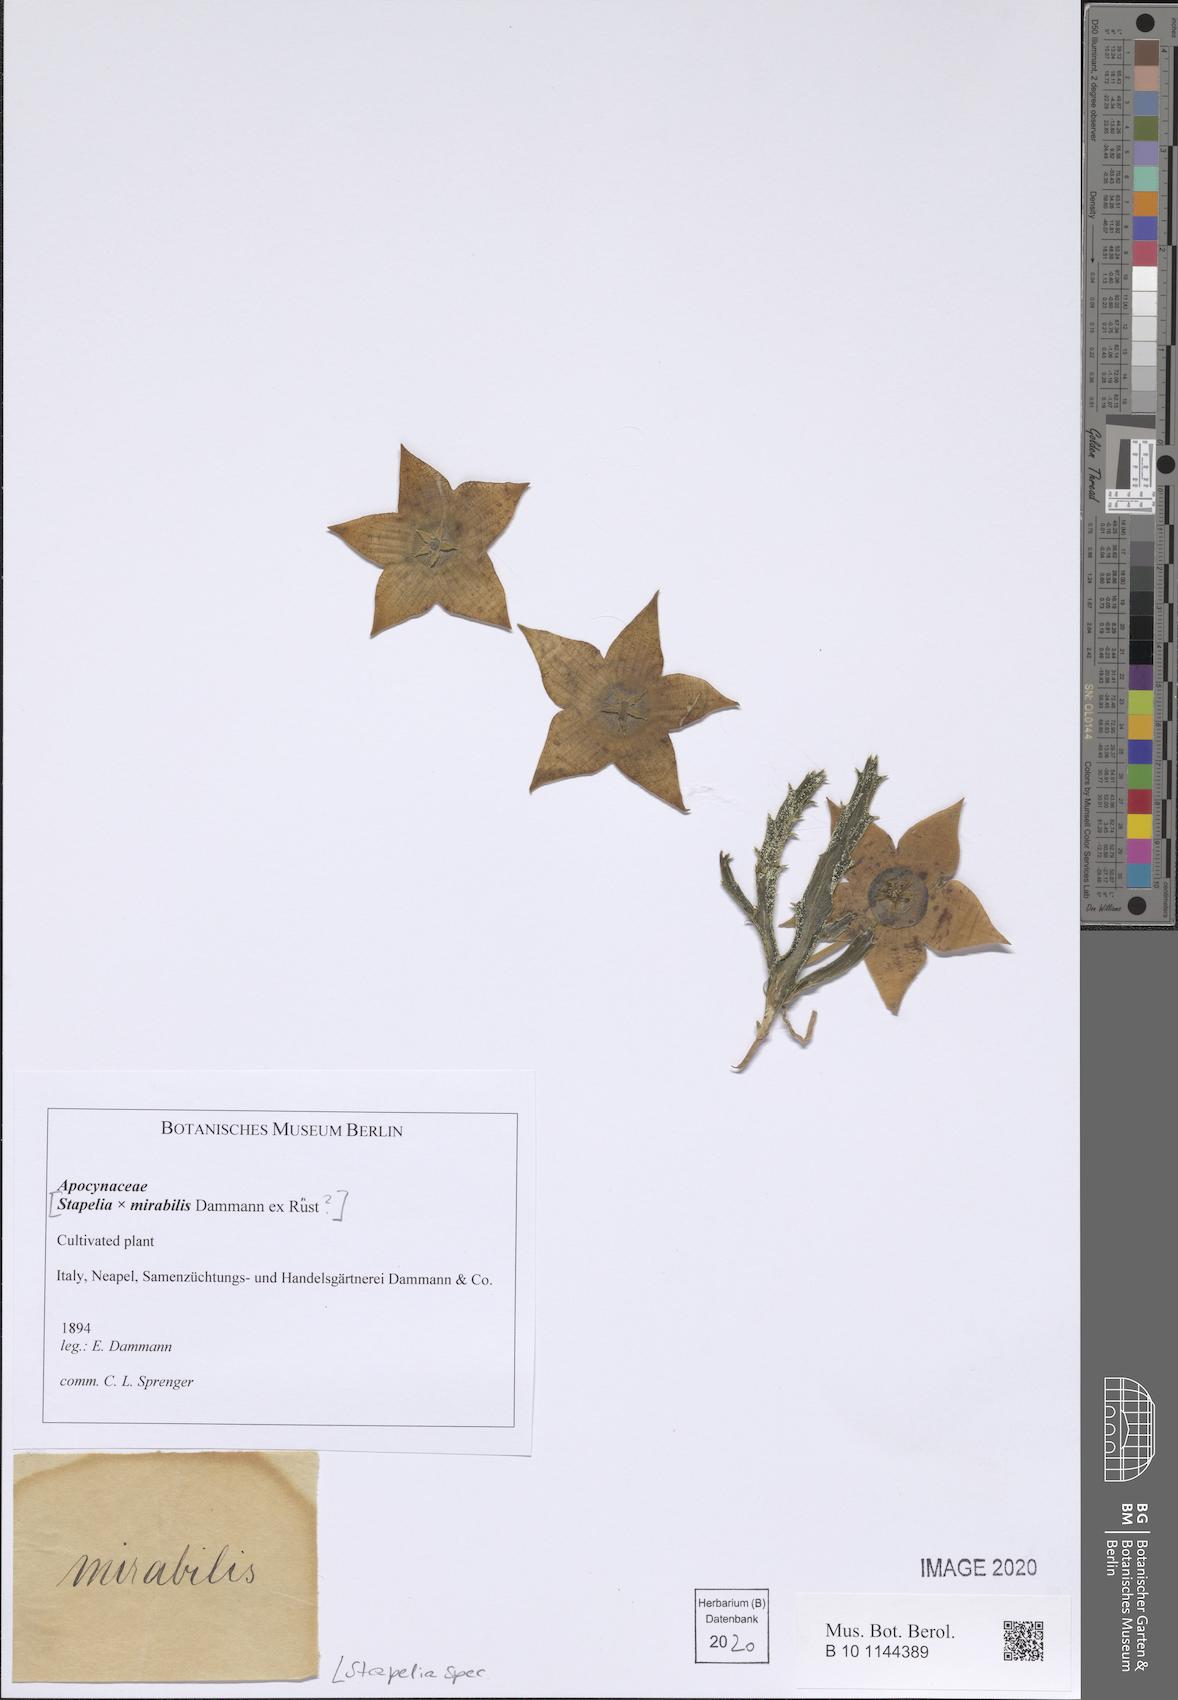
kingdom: Plantae
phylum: Tracheophyta
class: Magnoliopsida
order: Gentianales
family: Apocynaceae
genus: Stapelia
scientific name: Stapelia
